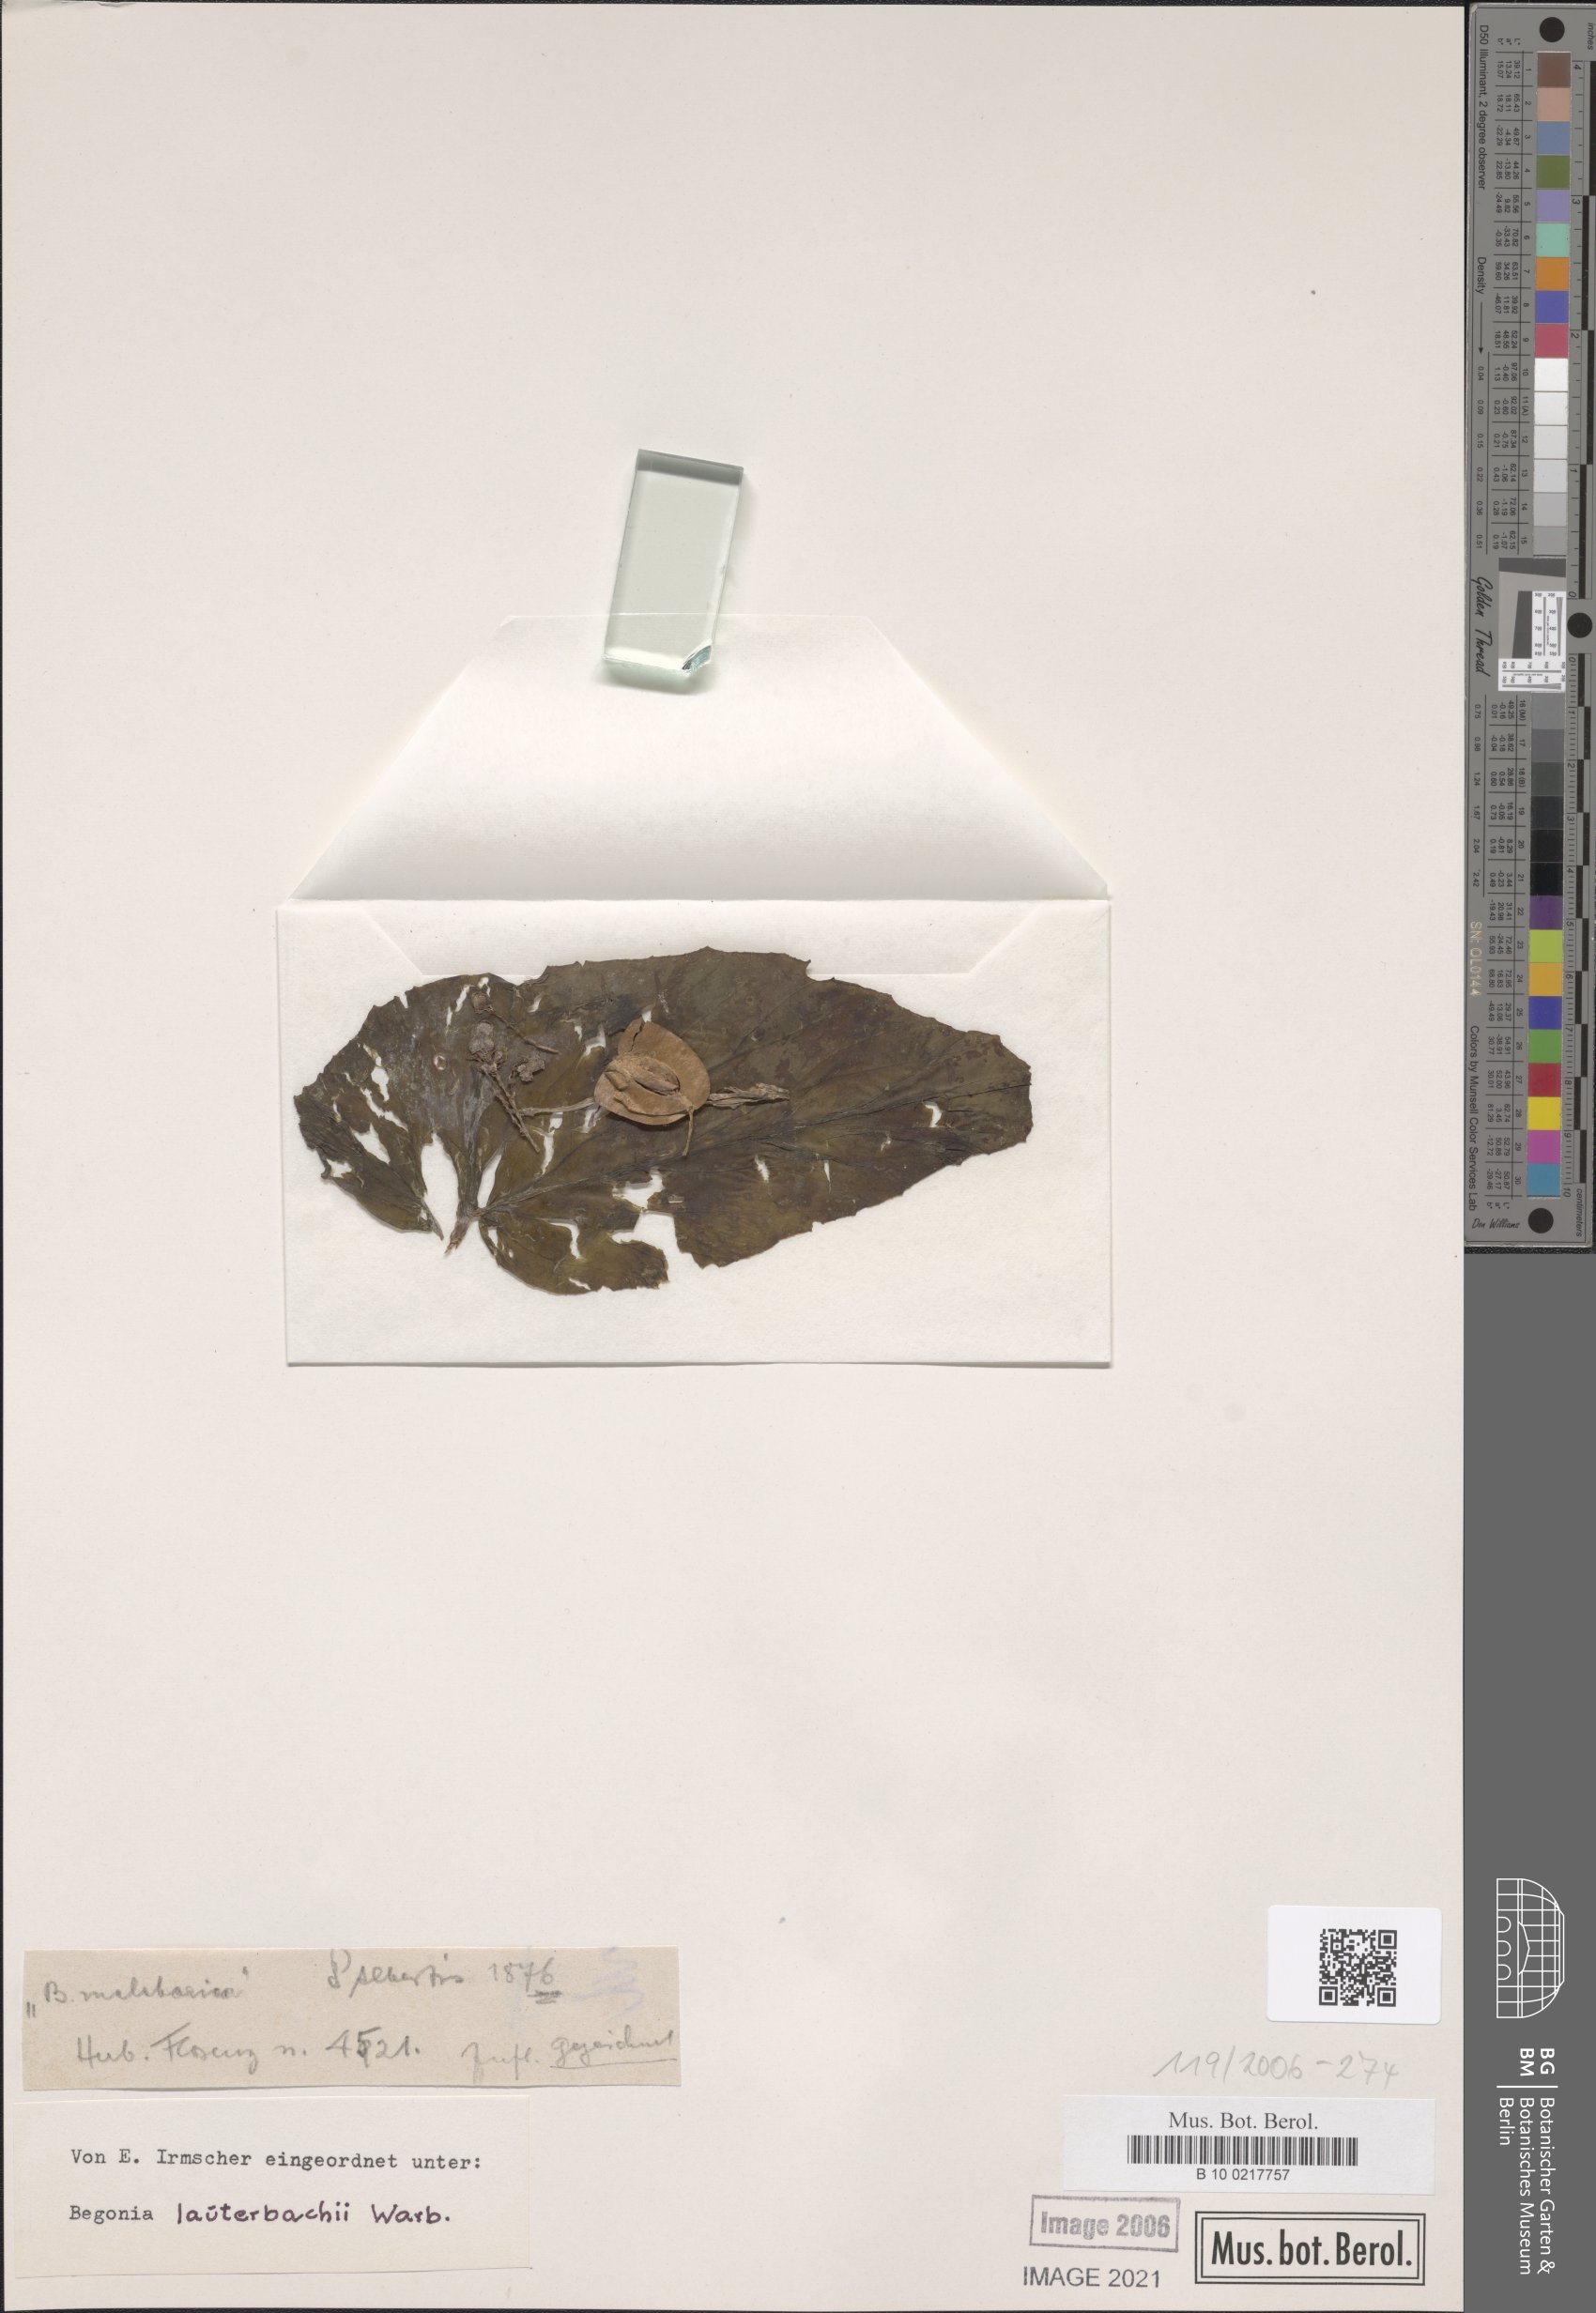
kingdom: Plantae
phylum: Tracheophyta
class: Magnoliopsida
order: Cucurbitales
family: Begoniaceae
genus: Begonia
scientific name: Begonia lauterbachii
